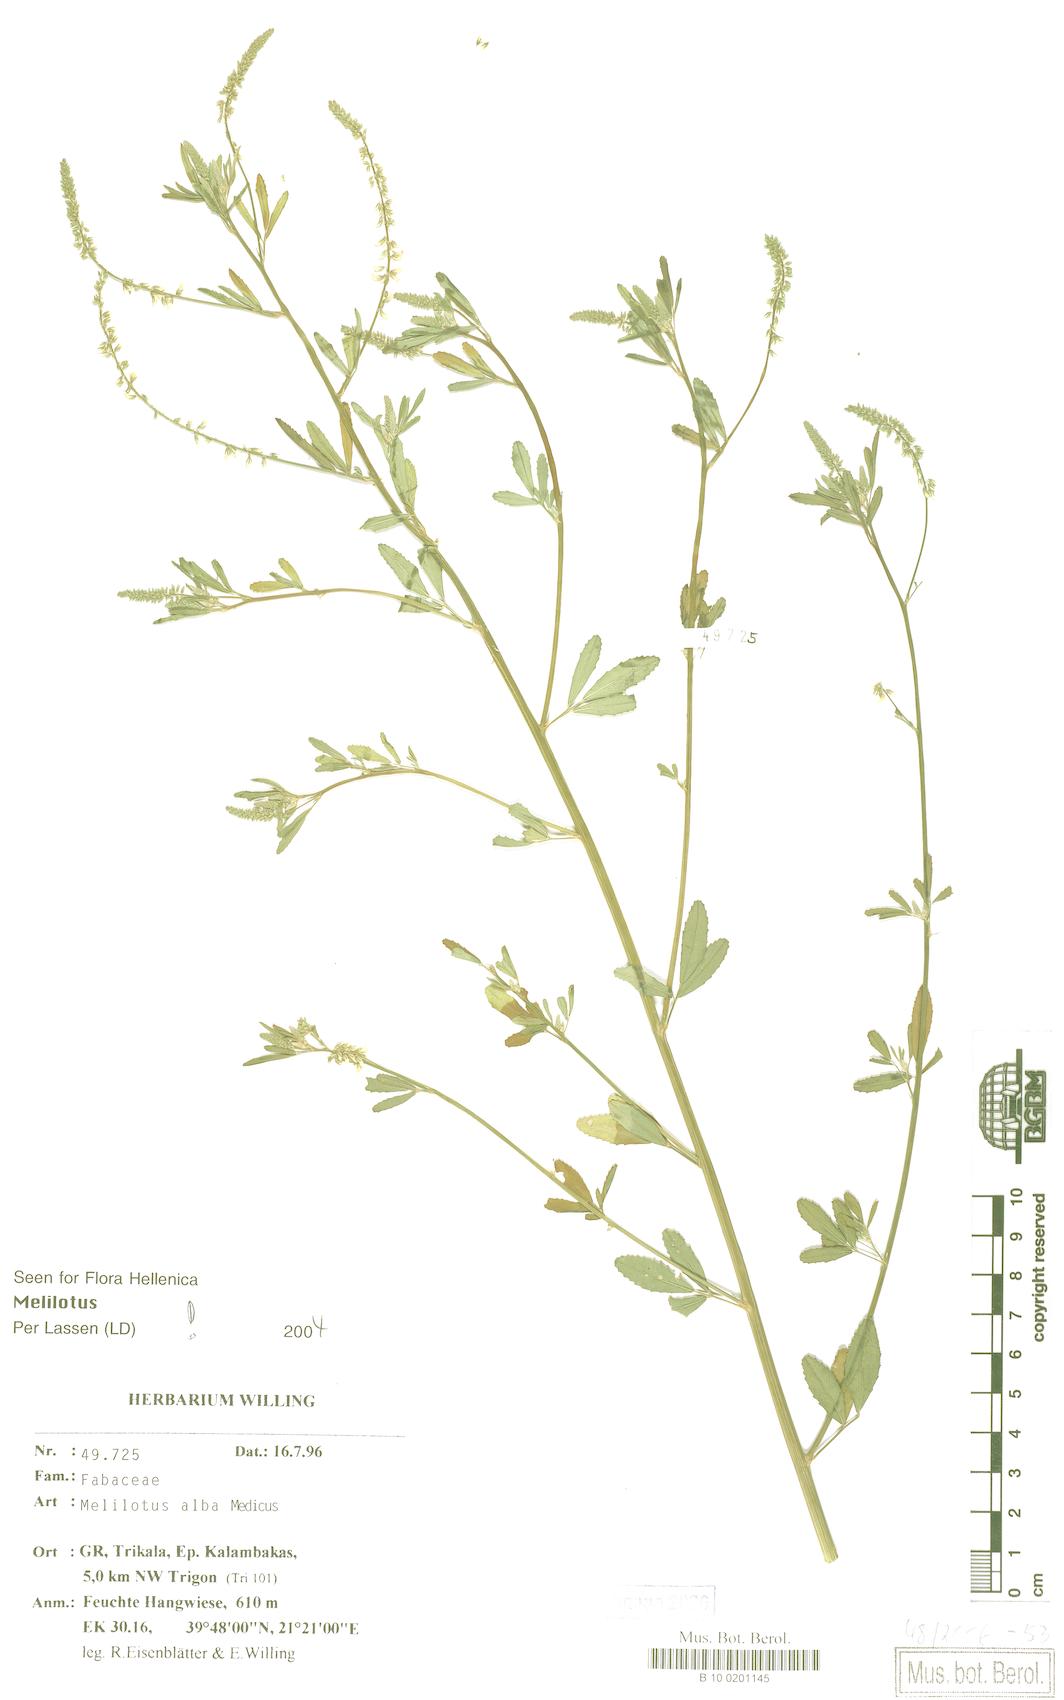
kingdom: Plantae
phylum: Tracheophyta
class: Magnoliopsida
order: Fabales
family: Fabaceae
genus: Melilotus
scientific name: Melilotus albus
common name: White melilot
